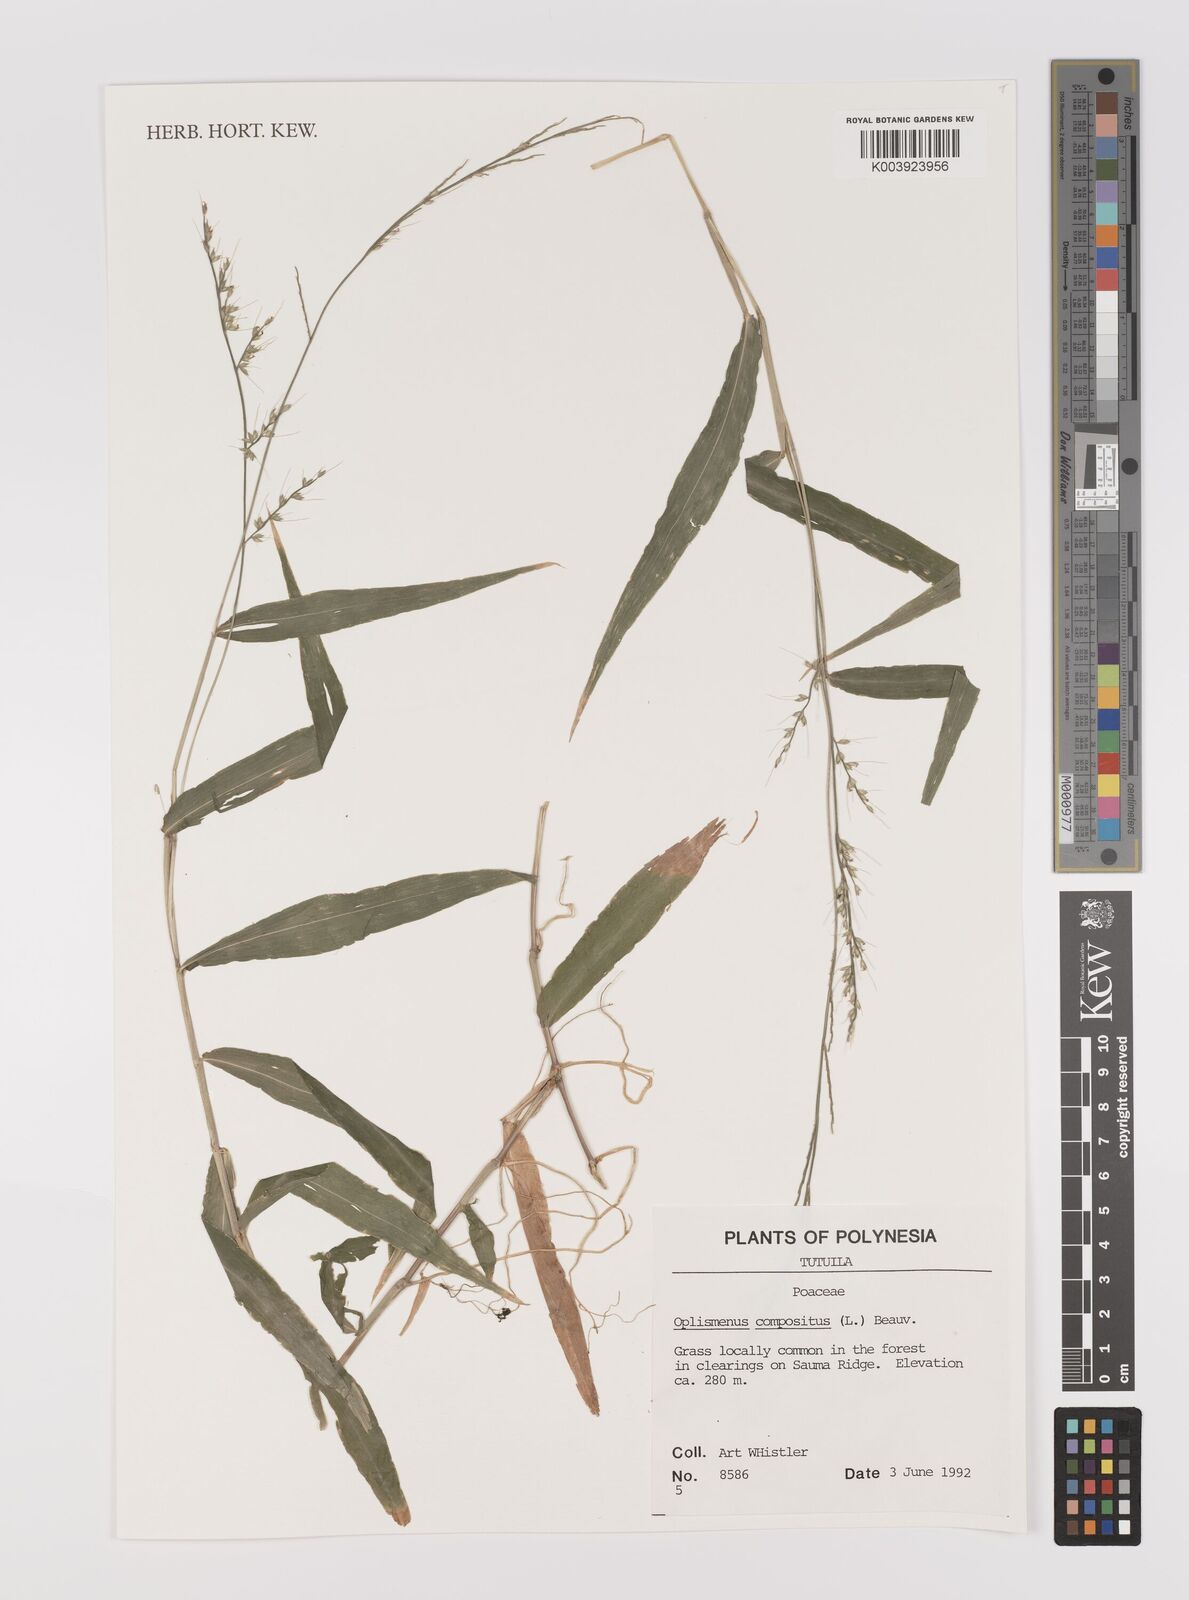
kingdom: Plantae
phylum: Tracheophyta
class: Liliopsida
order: Poales
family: Poaceae
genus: Oplismenus
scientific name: Oplismenus compositus
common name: Running mountain grass
